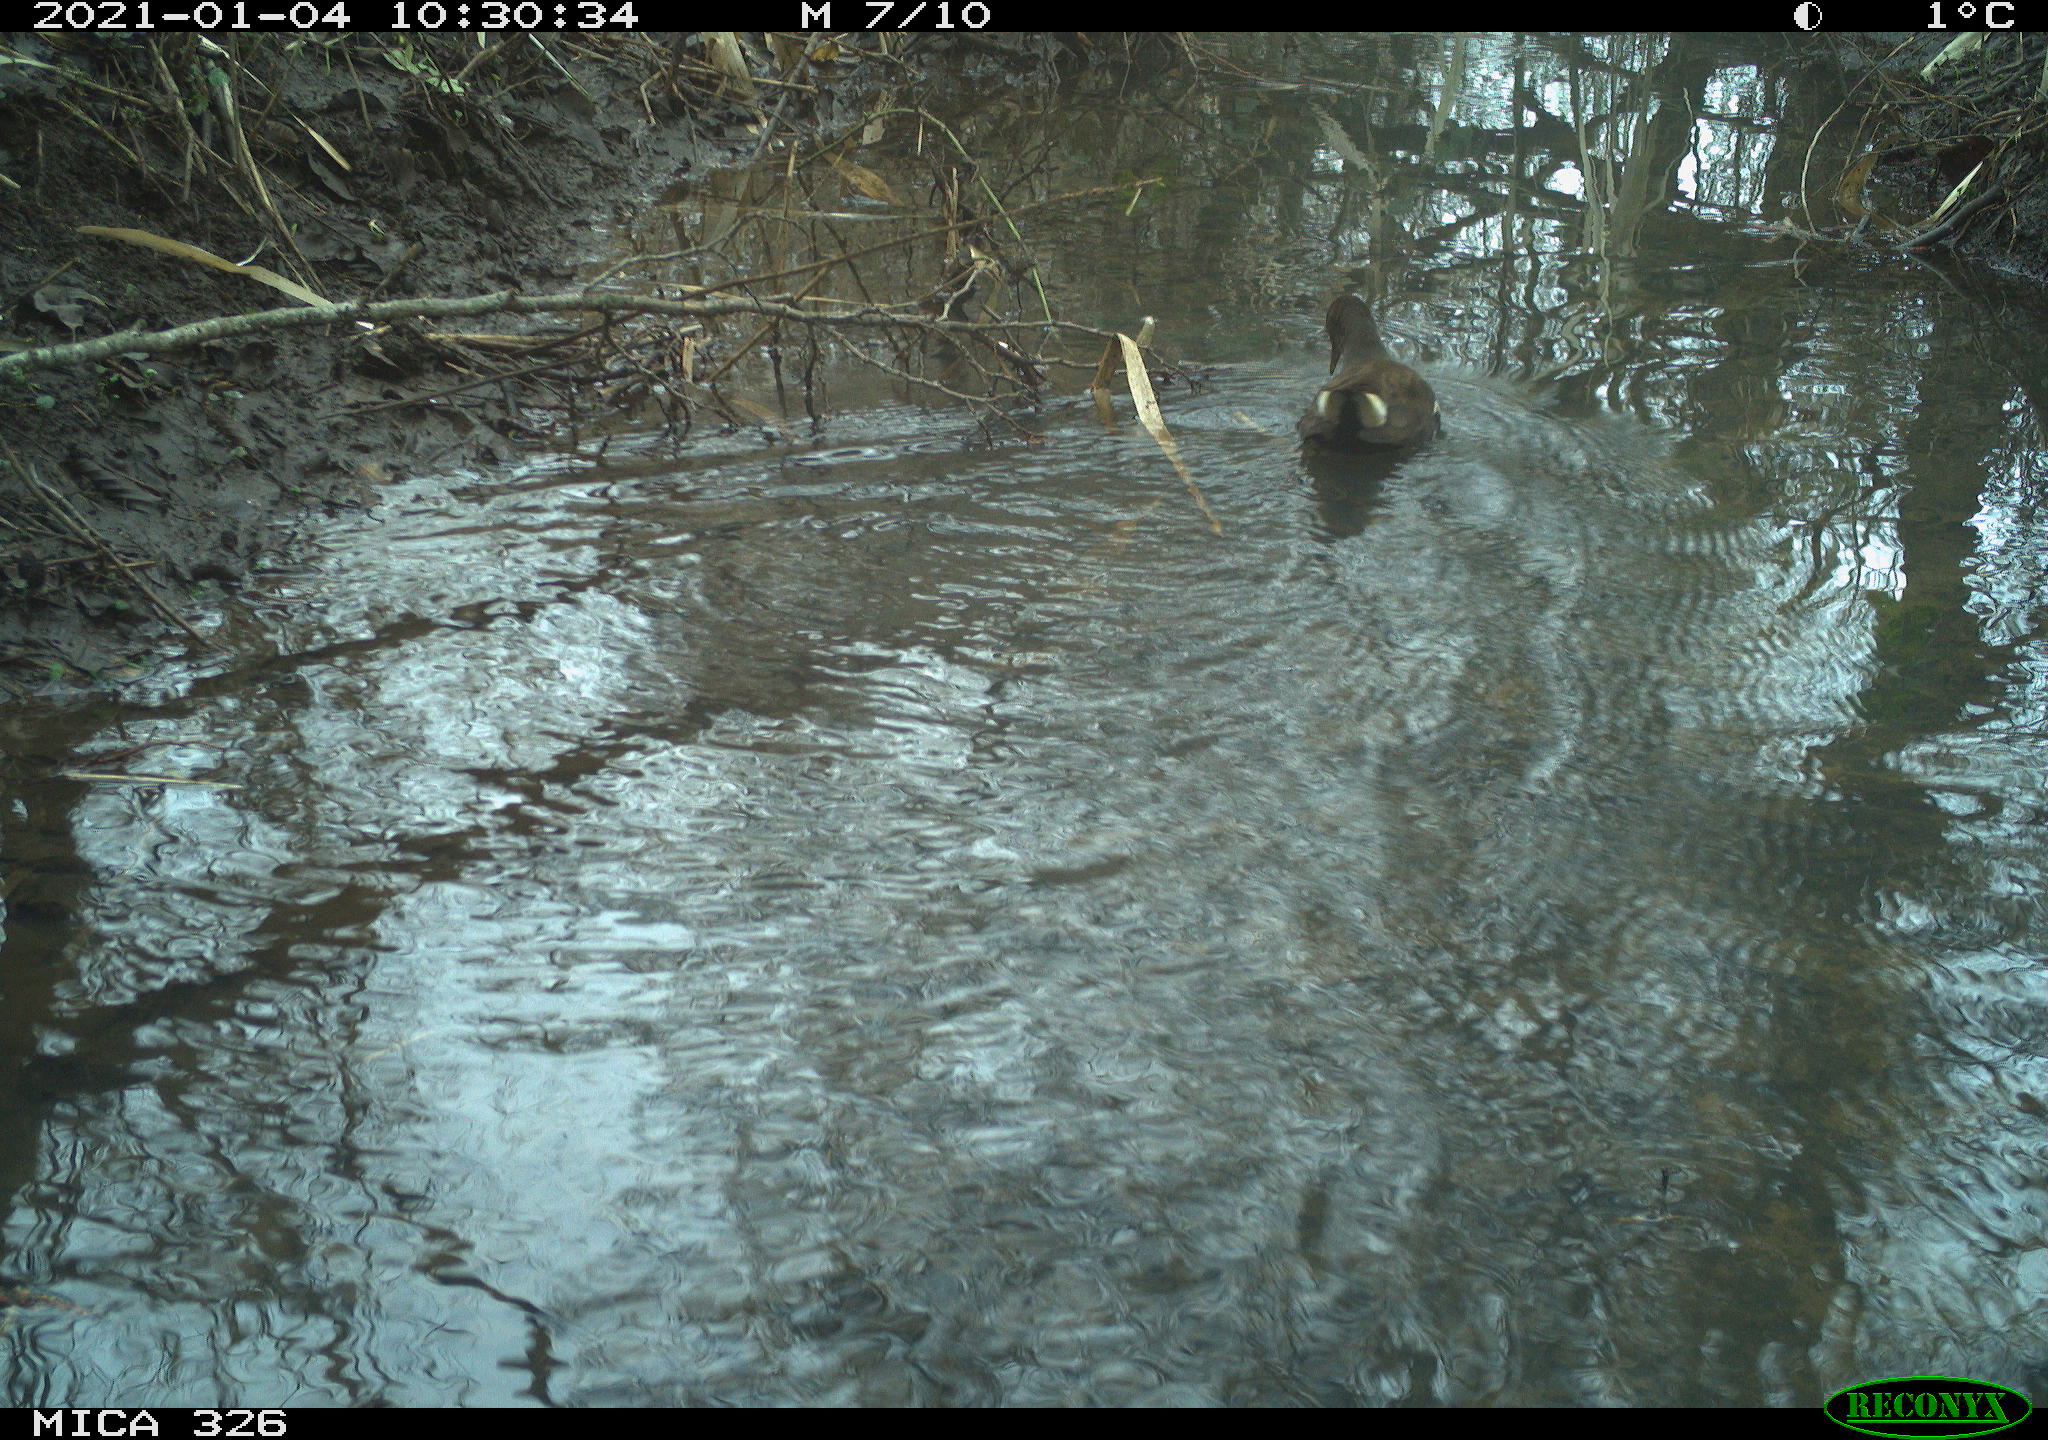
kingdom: Animalia
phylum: Chordata
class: Aves
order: Gruiformes
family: Rallidae
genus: Gallinula
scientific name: Gallinula chloropus
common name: Common moorhen
